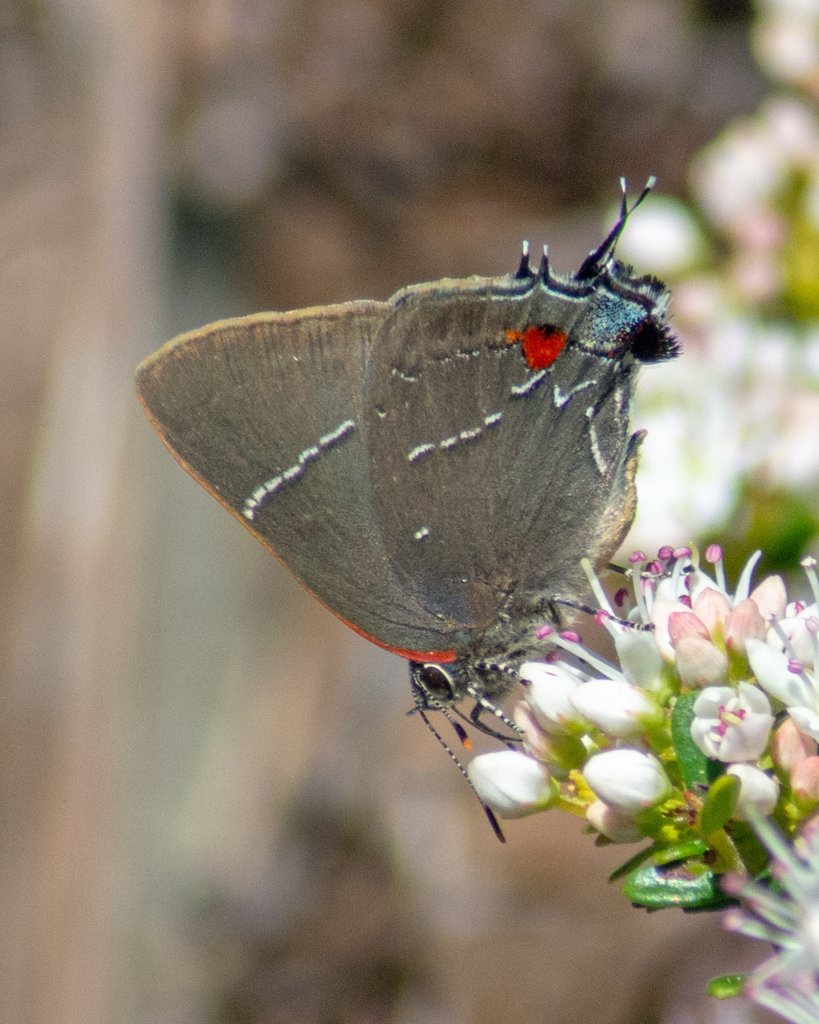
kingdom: Animalia
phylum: Arthropoda
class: Insecta
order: Lepidoptera
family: Lycaenidae
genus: Parrhasius
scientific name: Parrhasius m-album
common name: White-m Hairstreak
